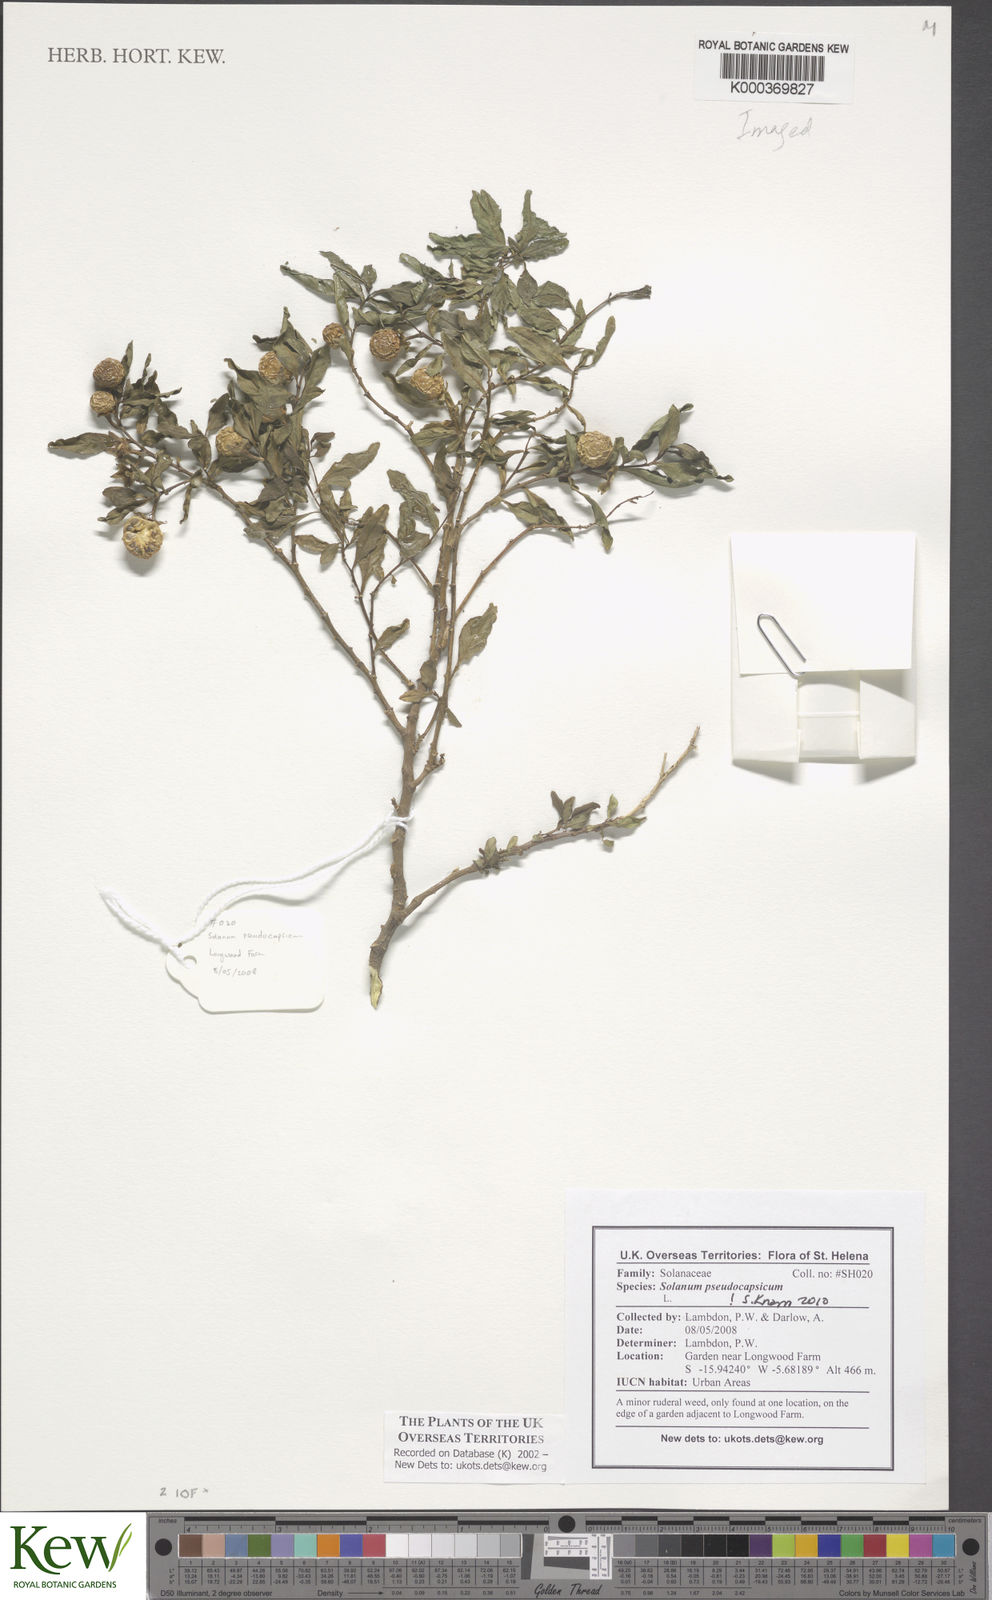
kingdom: Plantae
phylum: Tracheophyta
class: Magnoliopsida
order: Solanales
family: Solanaceae
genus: Solanum
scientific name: Solanum pseudocapsicum
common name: Jerusalem cherry
